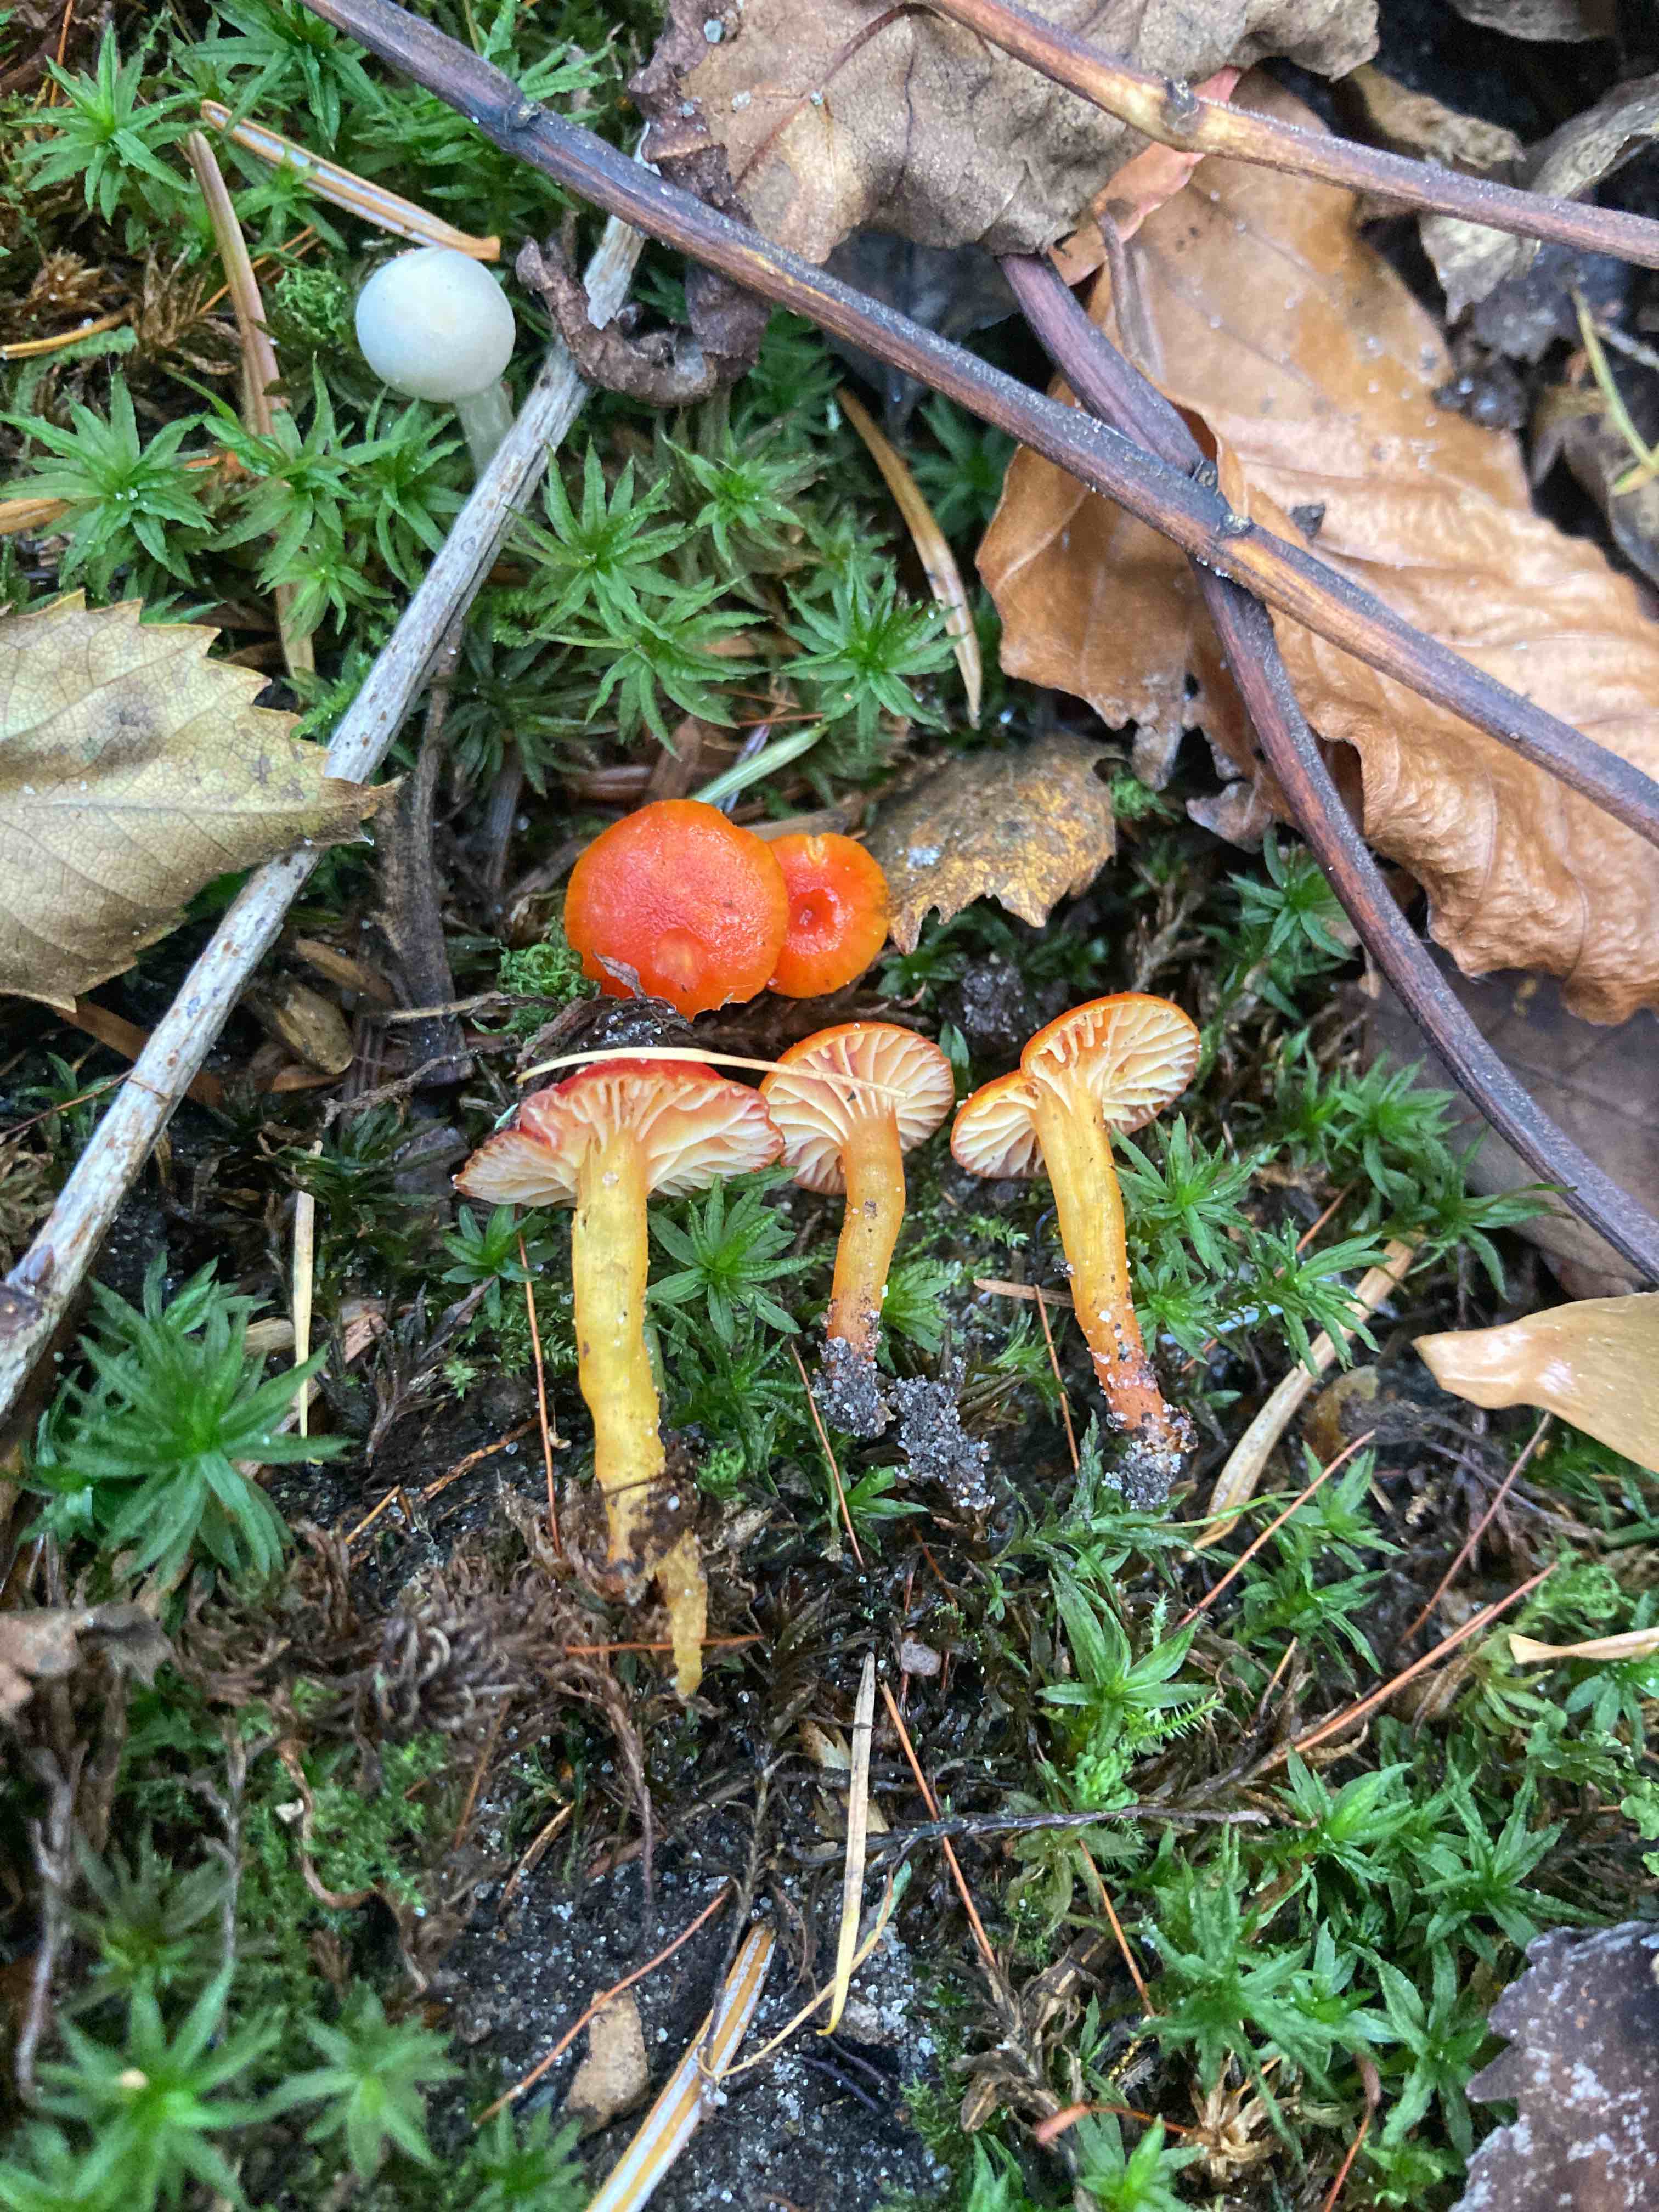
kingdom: Fungi
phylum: Basidiomycota
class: Agaricomycetes
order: Agaricales
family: Hygrophoraceae
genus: Hygrocybe
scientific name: Hygrocybe insipida
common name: liden vokshat
